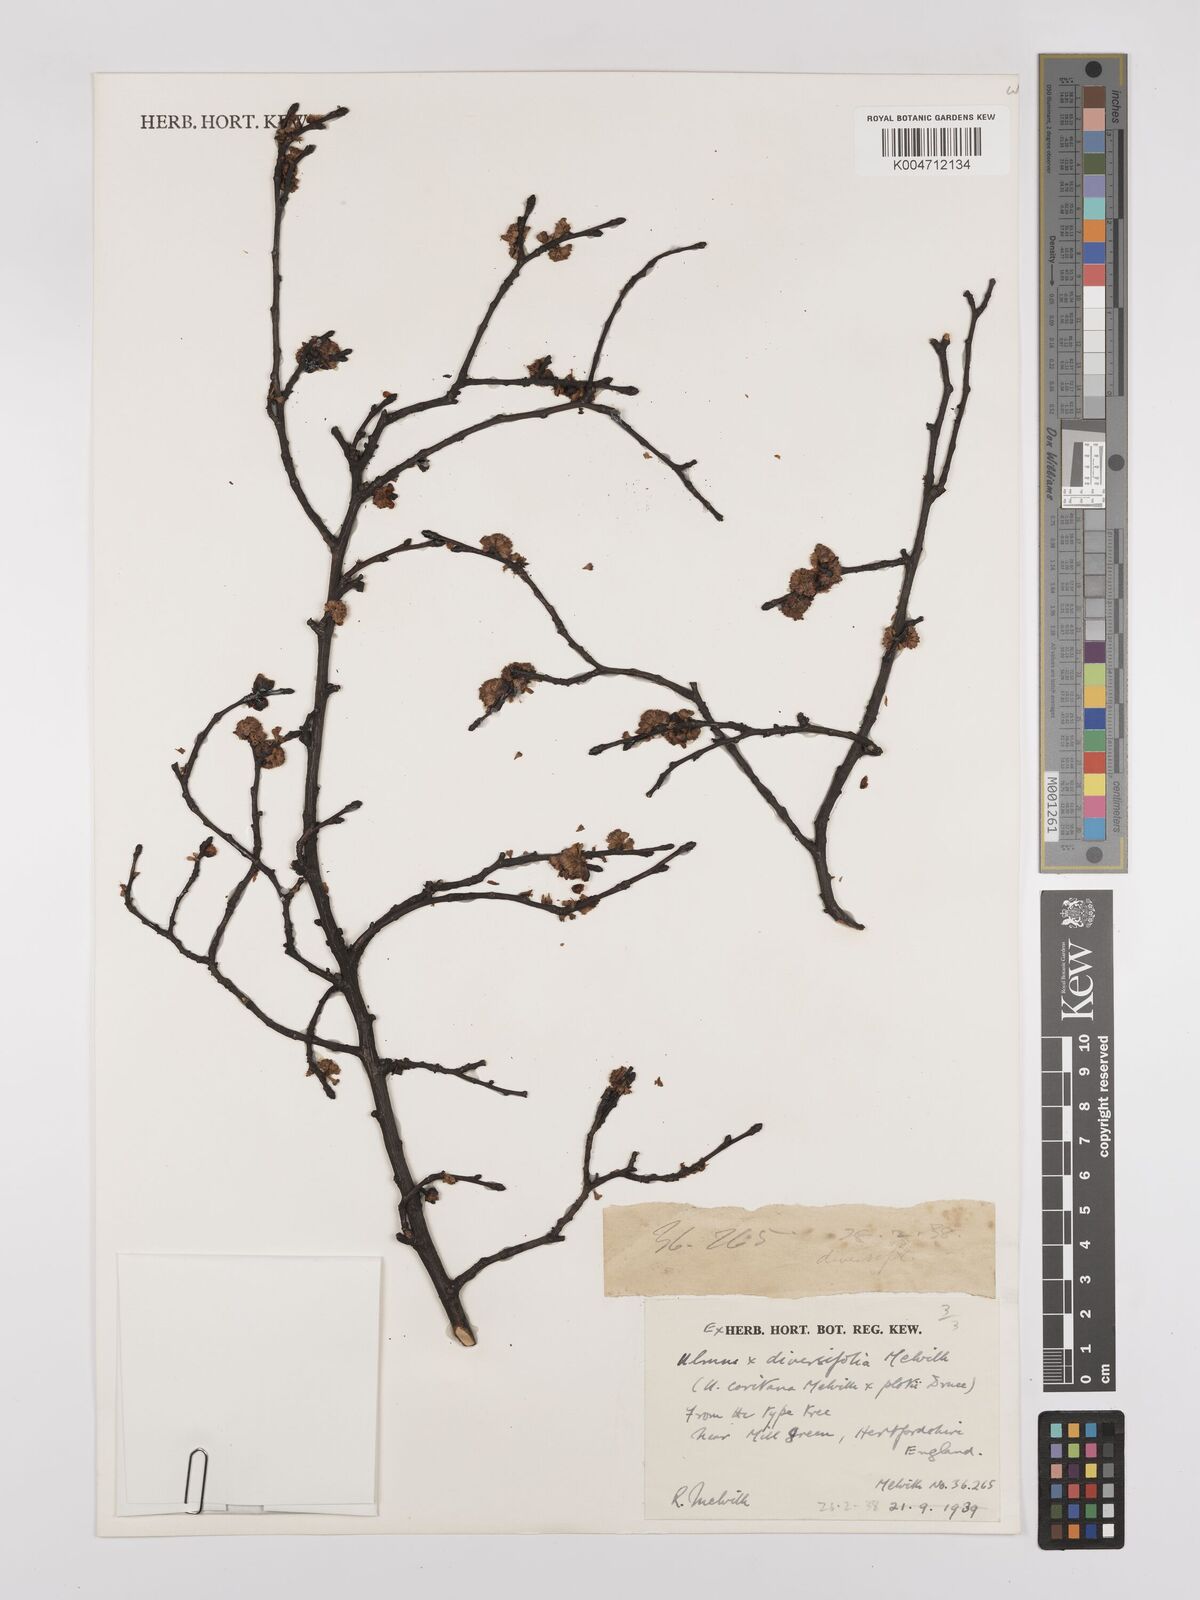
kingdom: Plantae
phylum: Tracheophyta
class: Magnoliopsida
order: Rosales
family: Ulmaceae
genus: Ulmus
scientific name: Ulmus minor
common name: Small-leaved elm
